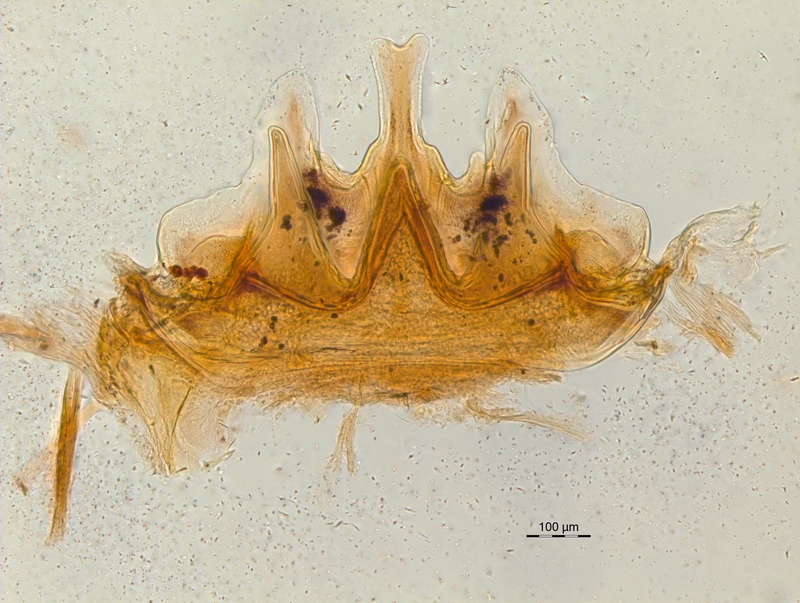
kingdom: Animalia
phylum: Arthropoda
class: Diplopoda
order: Chordeumatida
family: Craspedosomatidae
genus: Craspedosoma
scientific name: Craspedosoma alemannicum
